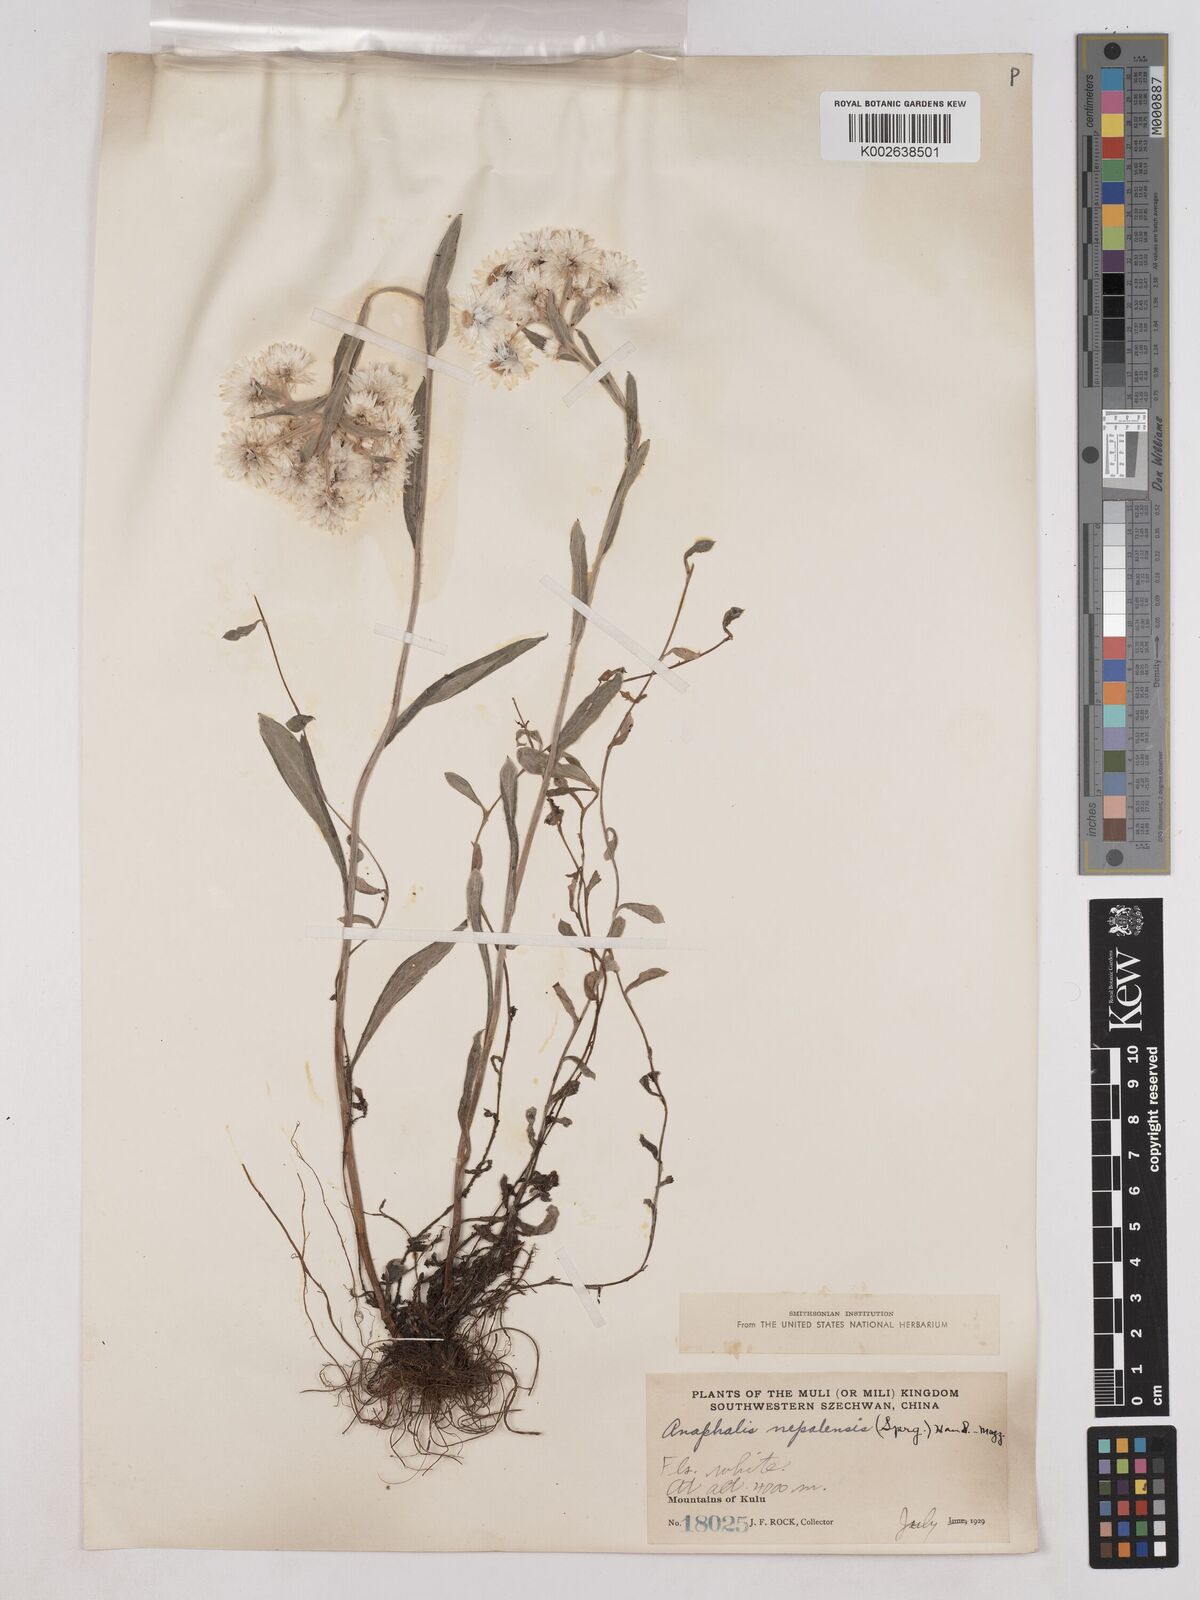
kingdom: Plantae
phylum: Tracheophyta
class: Magnoliopsida
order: Asterales
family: Asteraceae
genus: Anaphalis
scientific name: Anaphalis nepalensis
